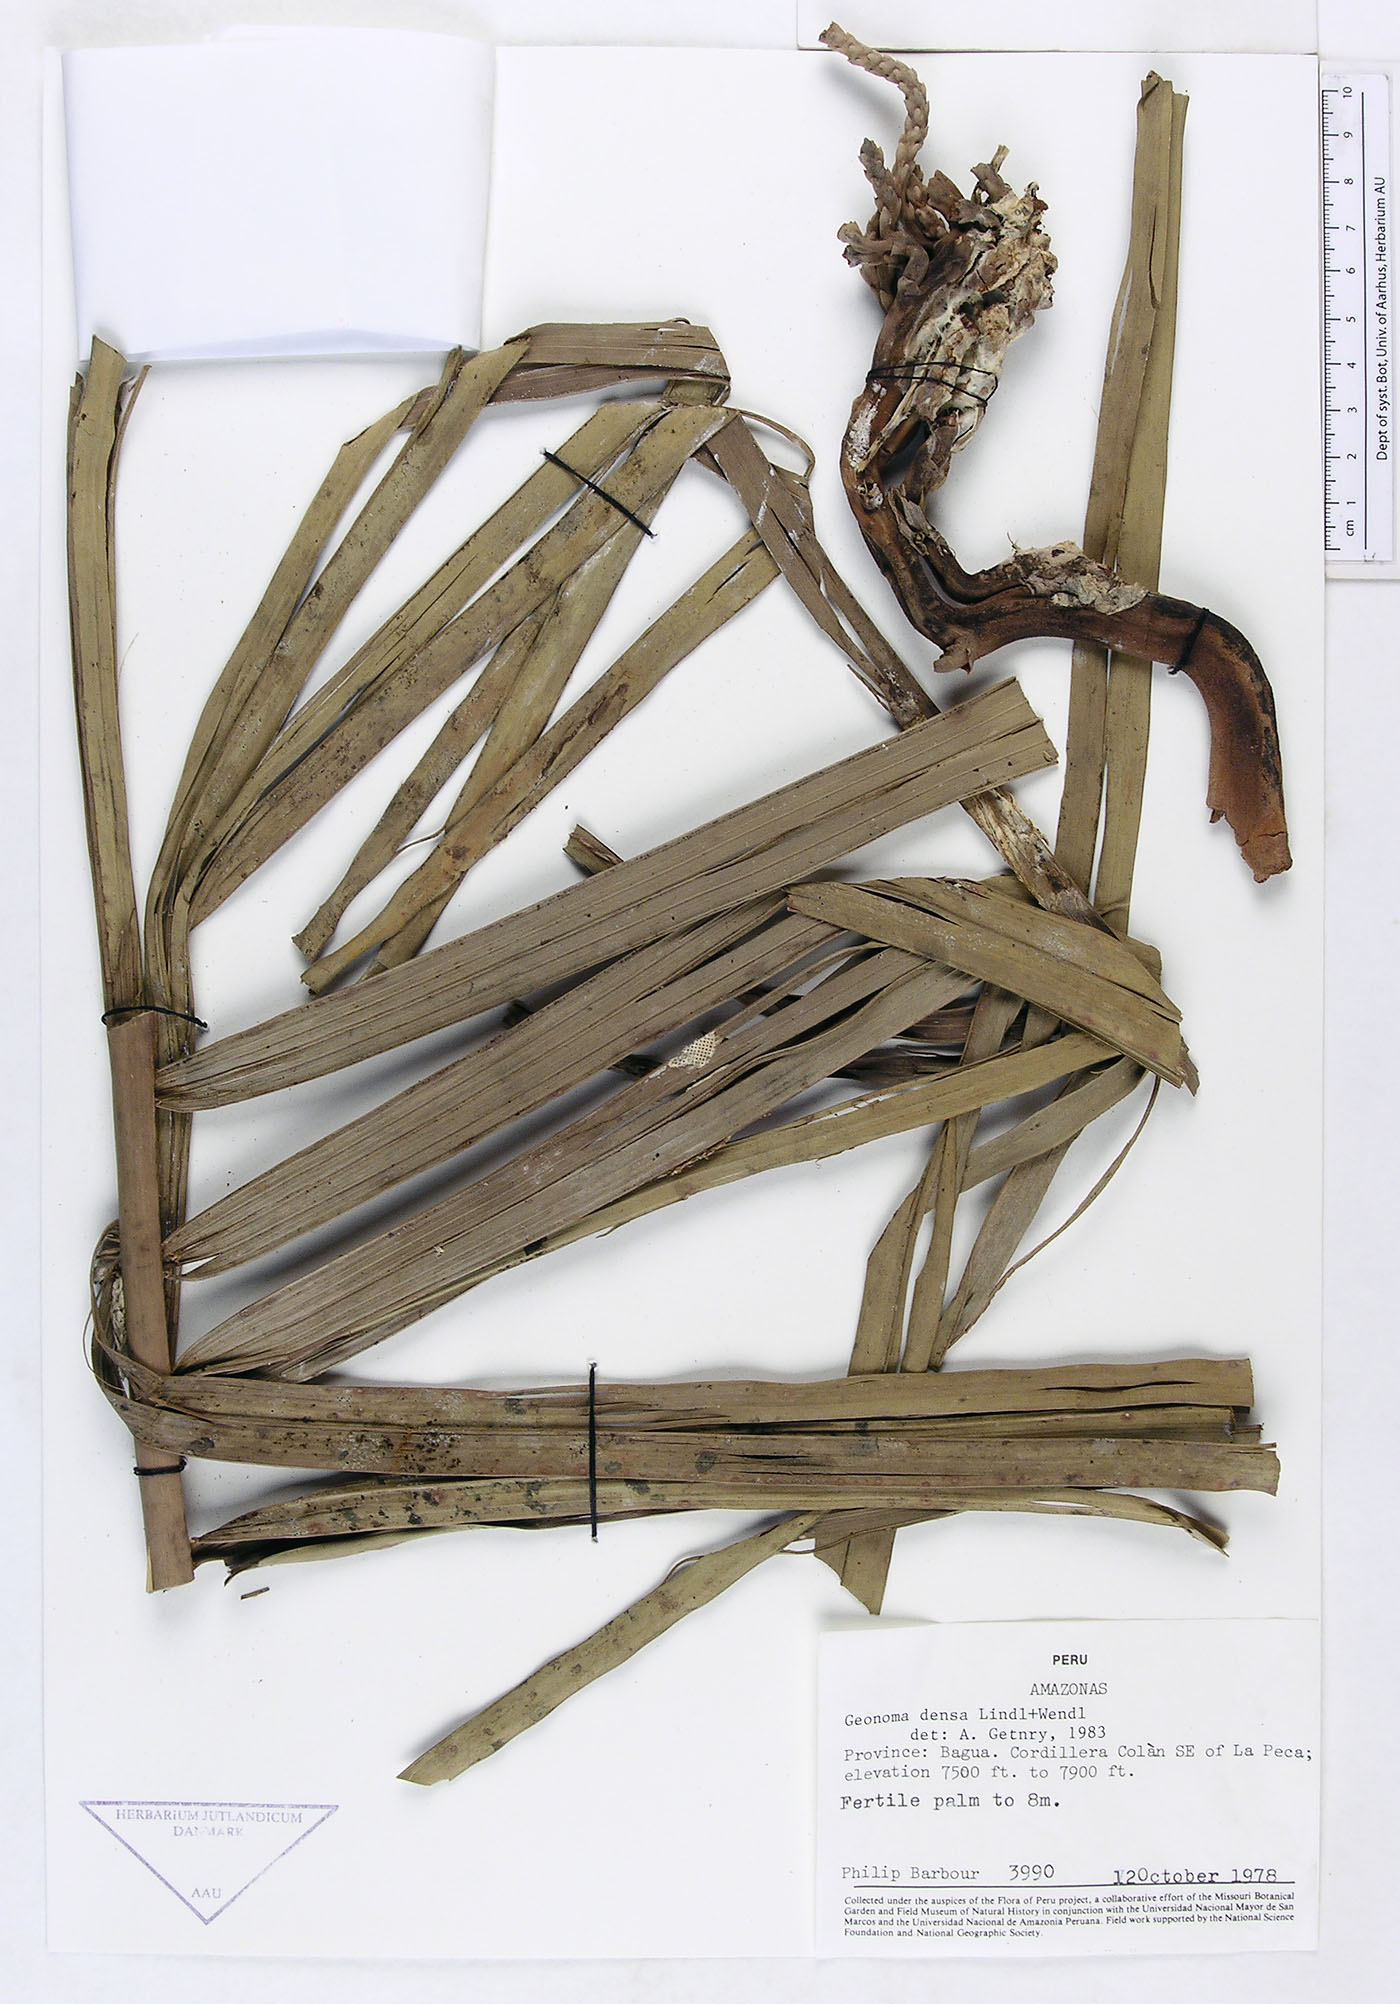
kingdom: Plantae
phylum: Tracheophyta
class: Liliopsida
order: Arecales
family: Arecaceae
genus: Geonoma
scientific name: Geonoma undata
